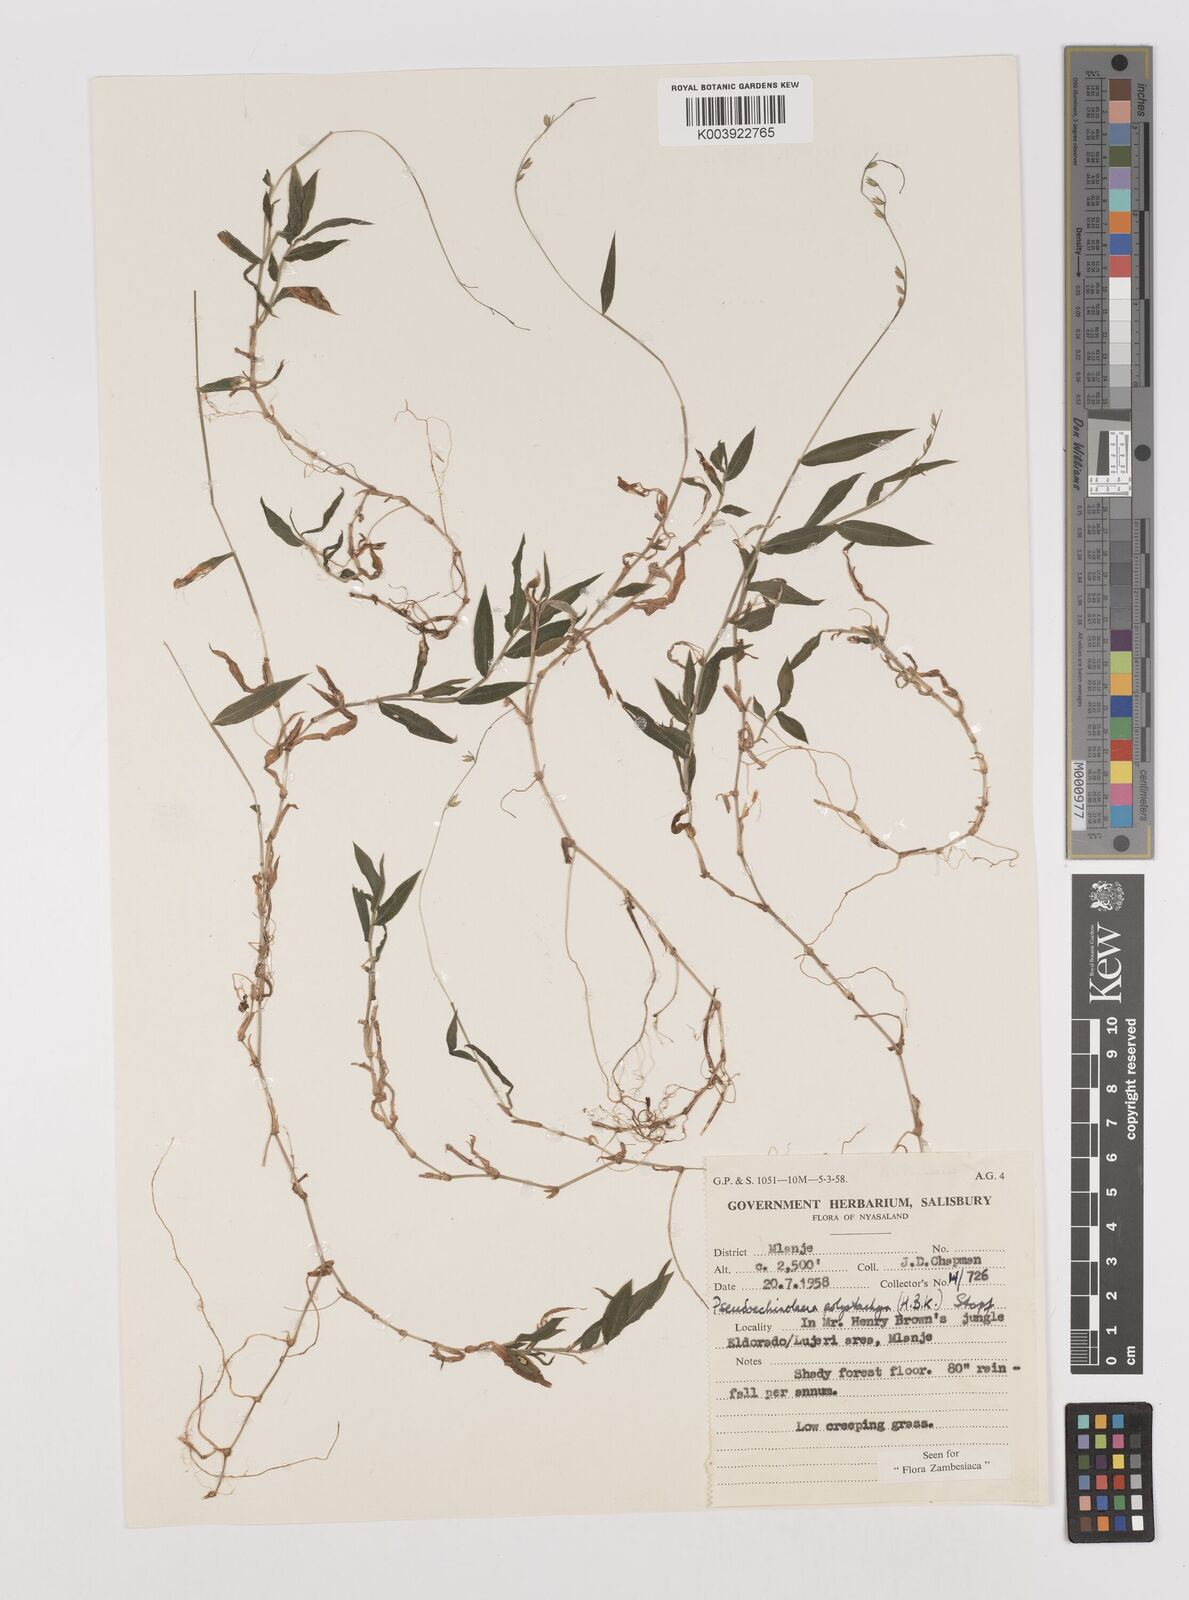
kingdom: Plantae
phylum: Tracheophyta
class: Liliopsida
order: Poales
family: Poaceae
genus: Pseudechinolaena
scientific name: Pseudechinolaena polystachya
